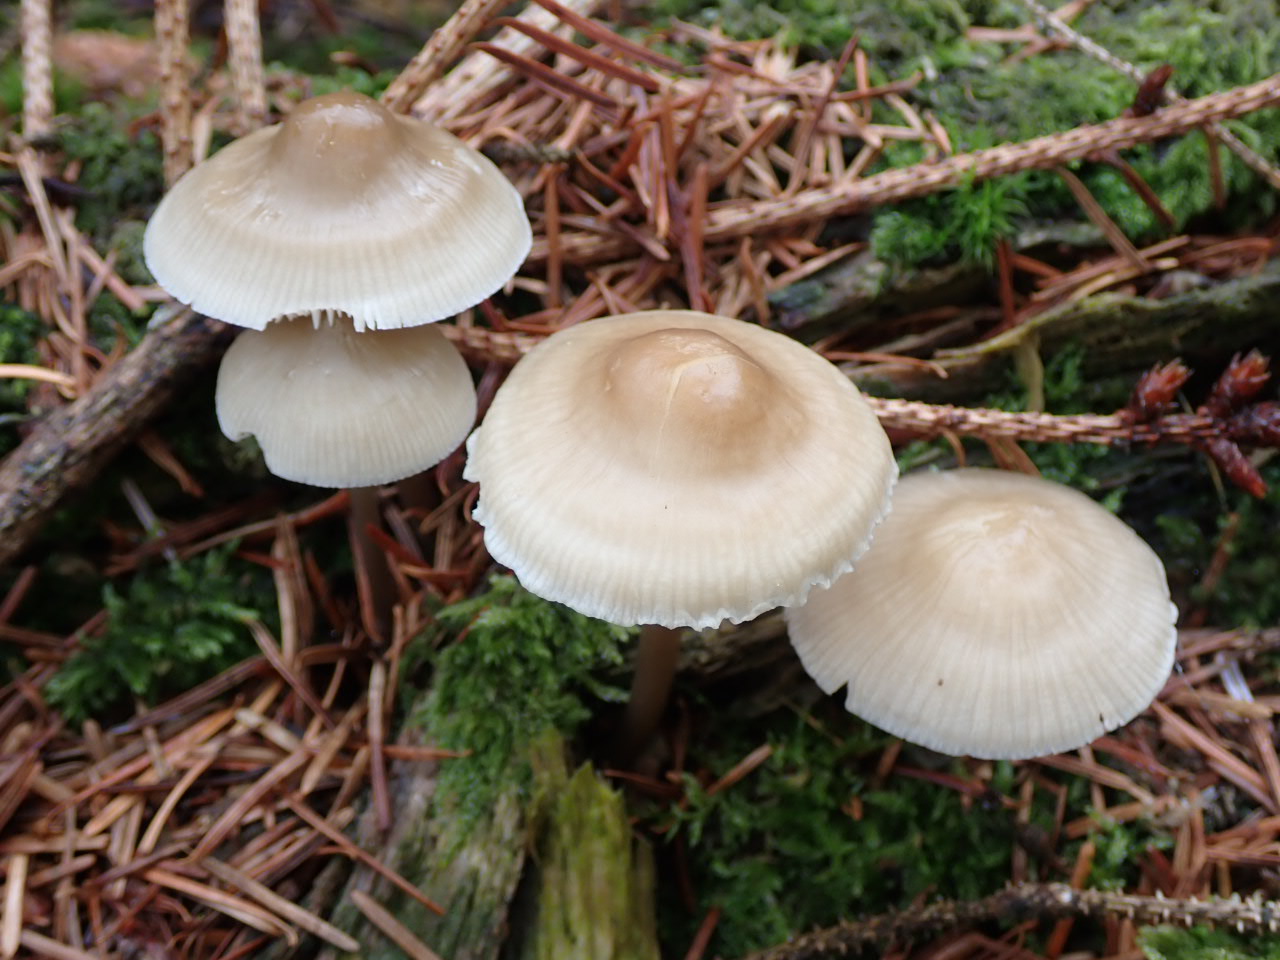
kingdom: Fungi
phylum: Basidiomycota
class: Agaricomycetes
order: Agaricales
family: Mycenaceae
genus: Mycena
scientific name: Mycena galericulata
